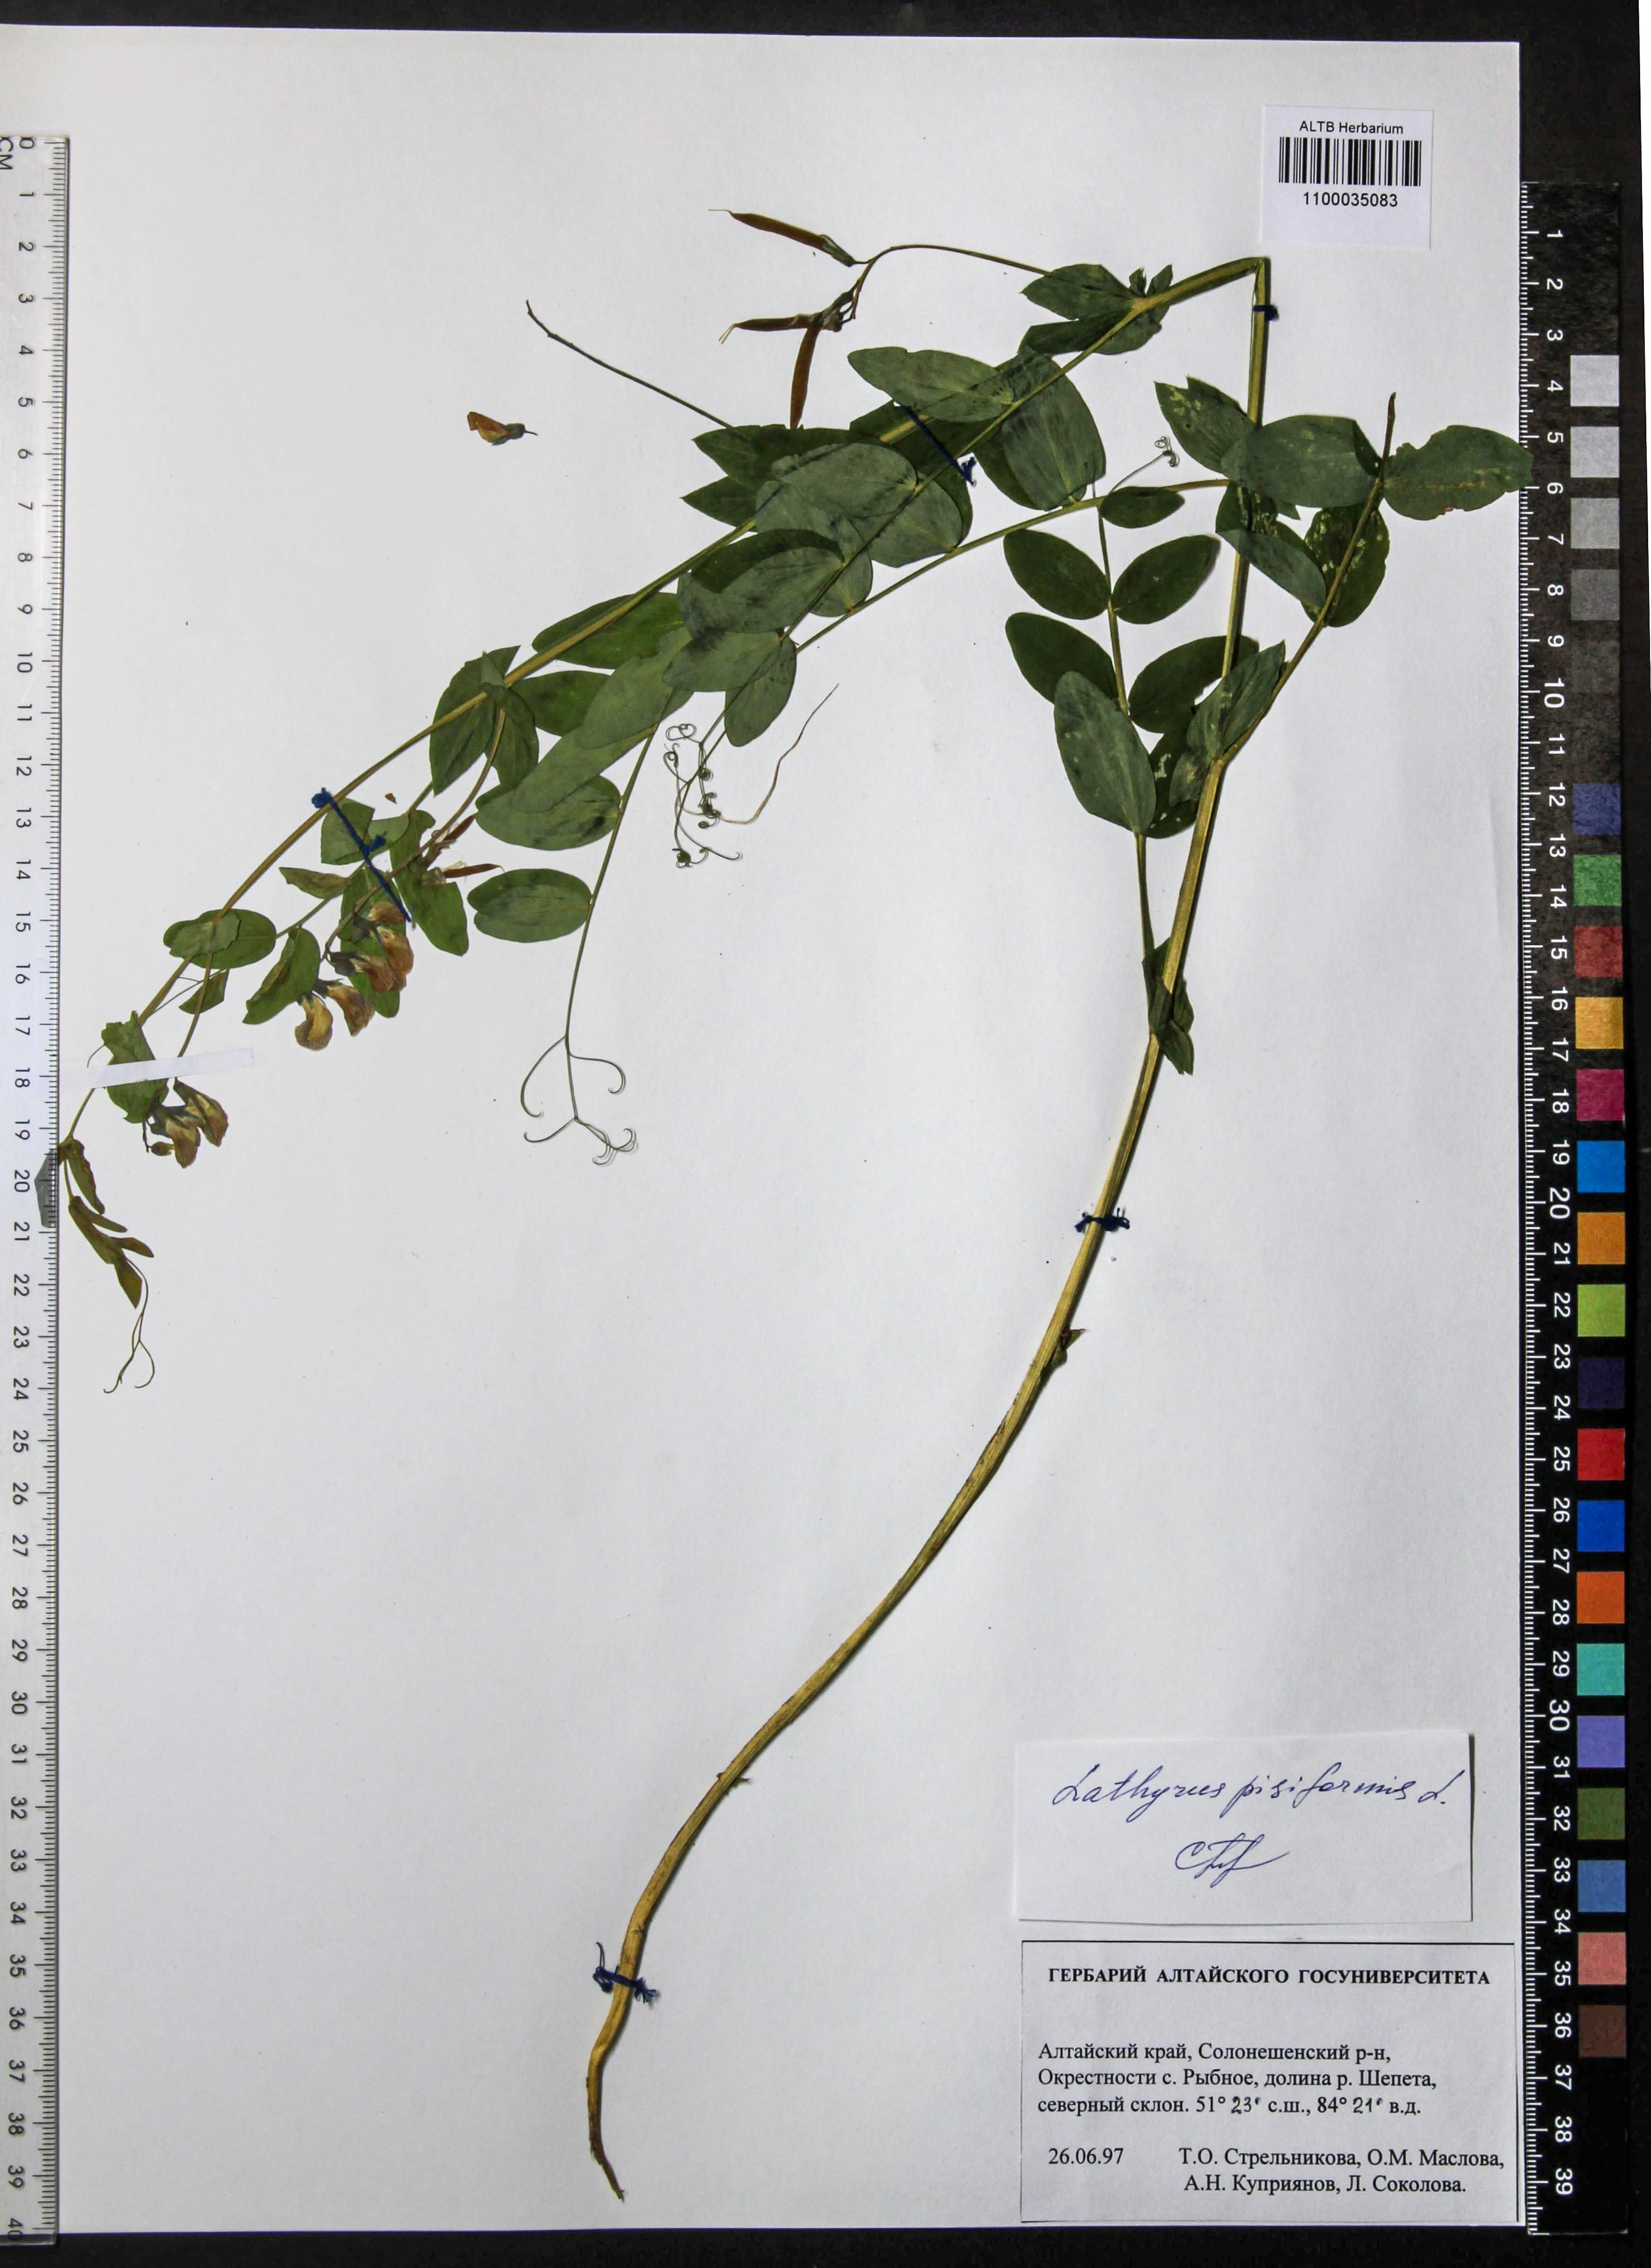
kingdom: Plantae
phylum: Tracheophyta
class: Magnoliopsida
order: Fabales
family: Fabaceae
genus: Lathyrus
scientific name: Lathyrus pisiformis
